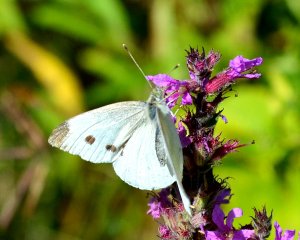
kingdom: Animalia
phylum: Arthropoda
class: Insecta
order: Lepidoptera
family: Pieridae
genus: Pieris
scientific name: Pieris rapae
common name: Cabbage White
